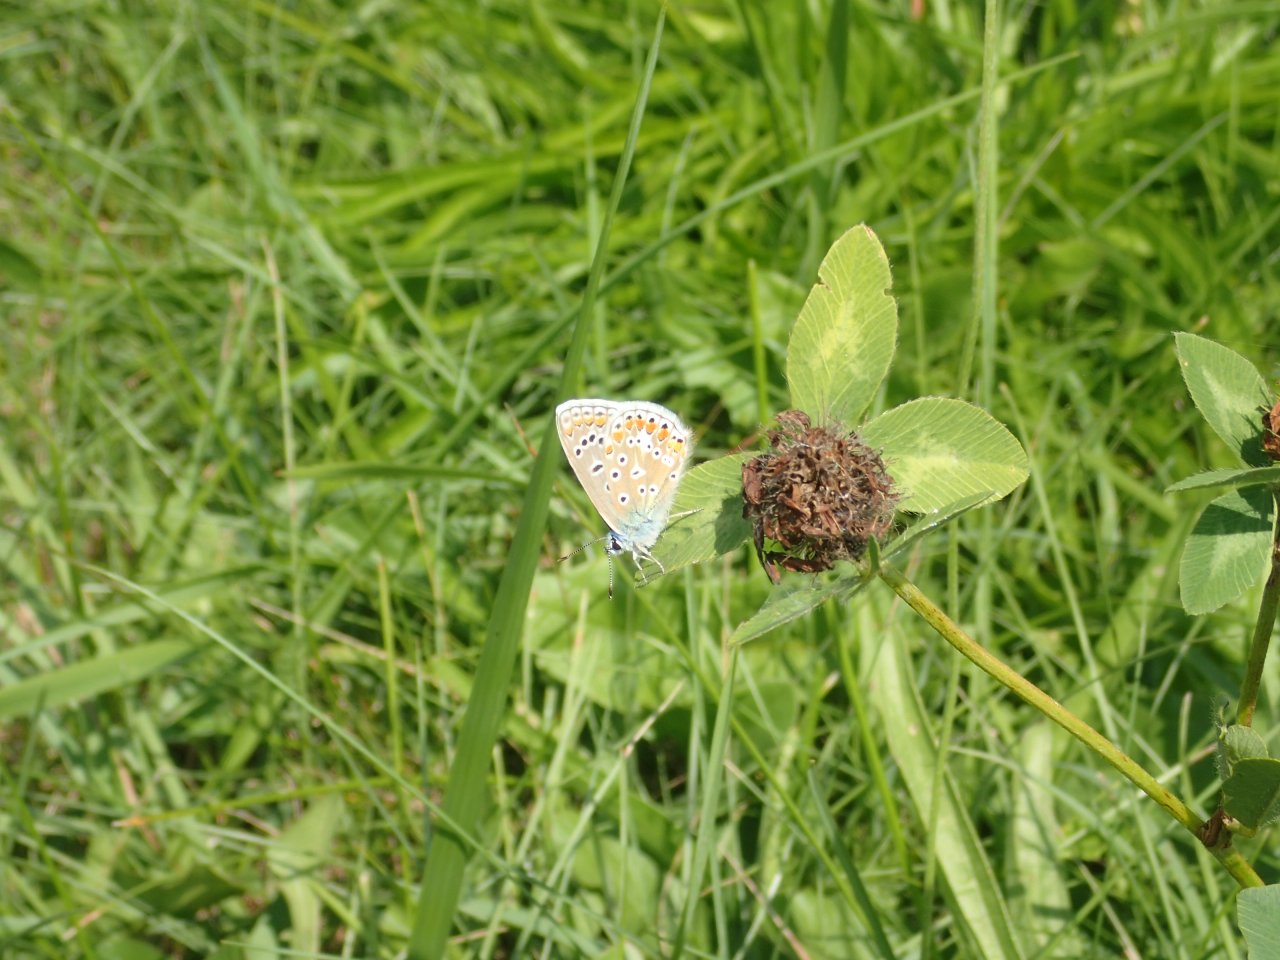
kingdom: Animalia
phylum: Arthropoda
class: Insecta
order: Lepidoptera
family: Lycaenidae
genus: Polyommatus
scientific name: Polyommatus icarus
